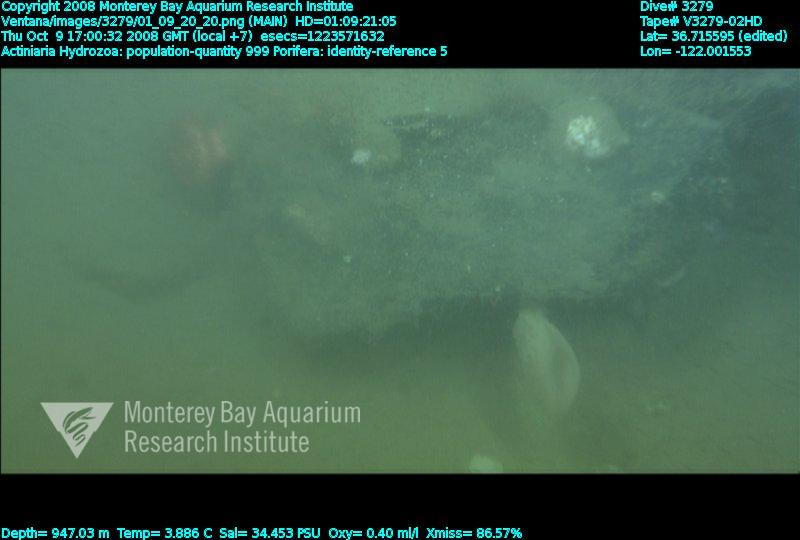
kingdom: Animalia
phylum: Porifera
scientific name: Porifera
